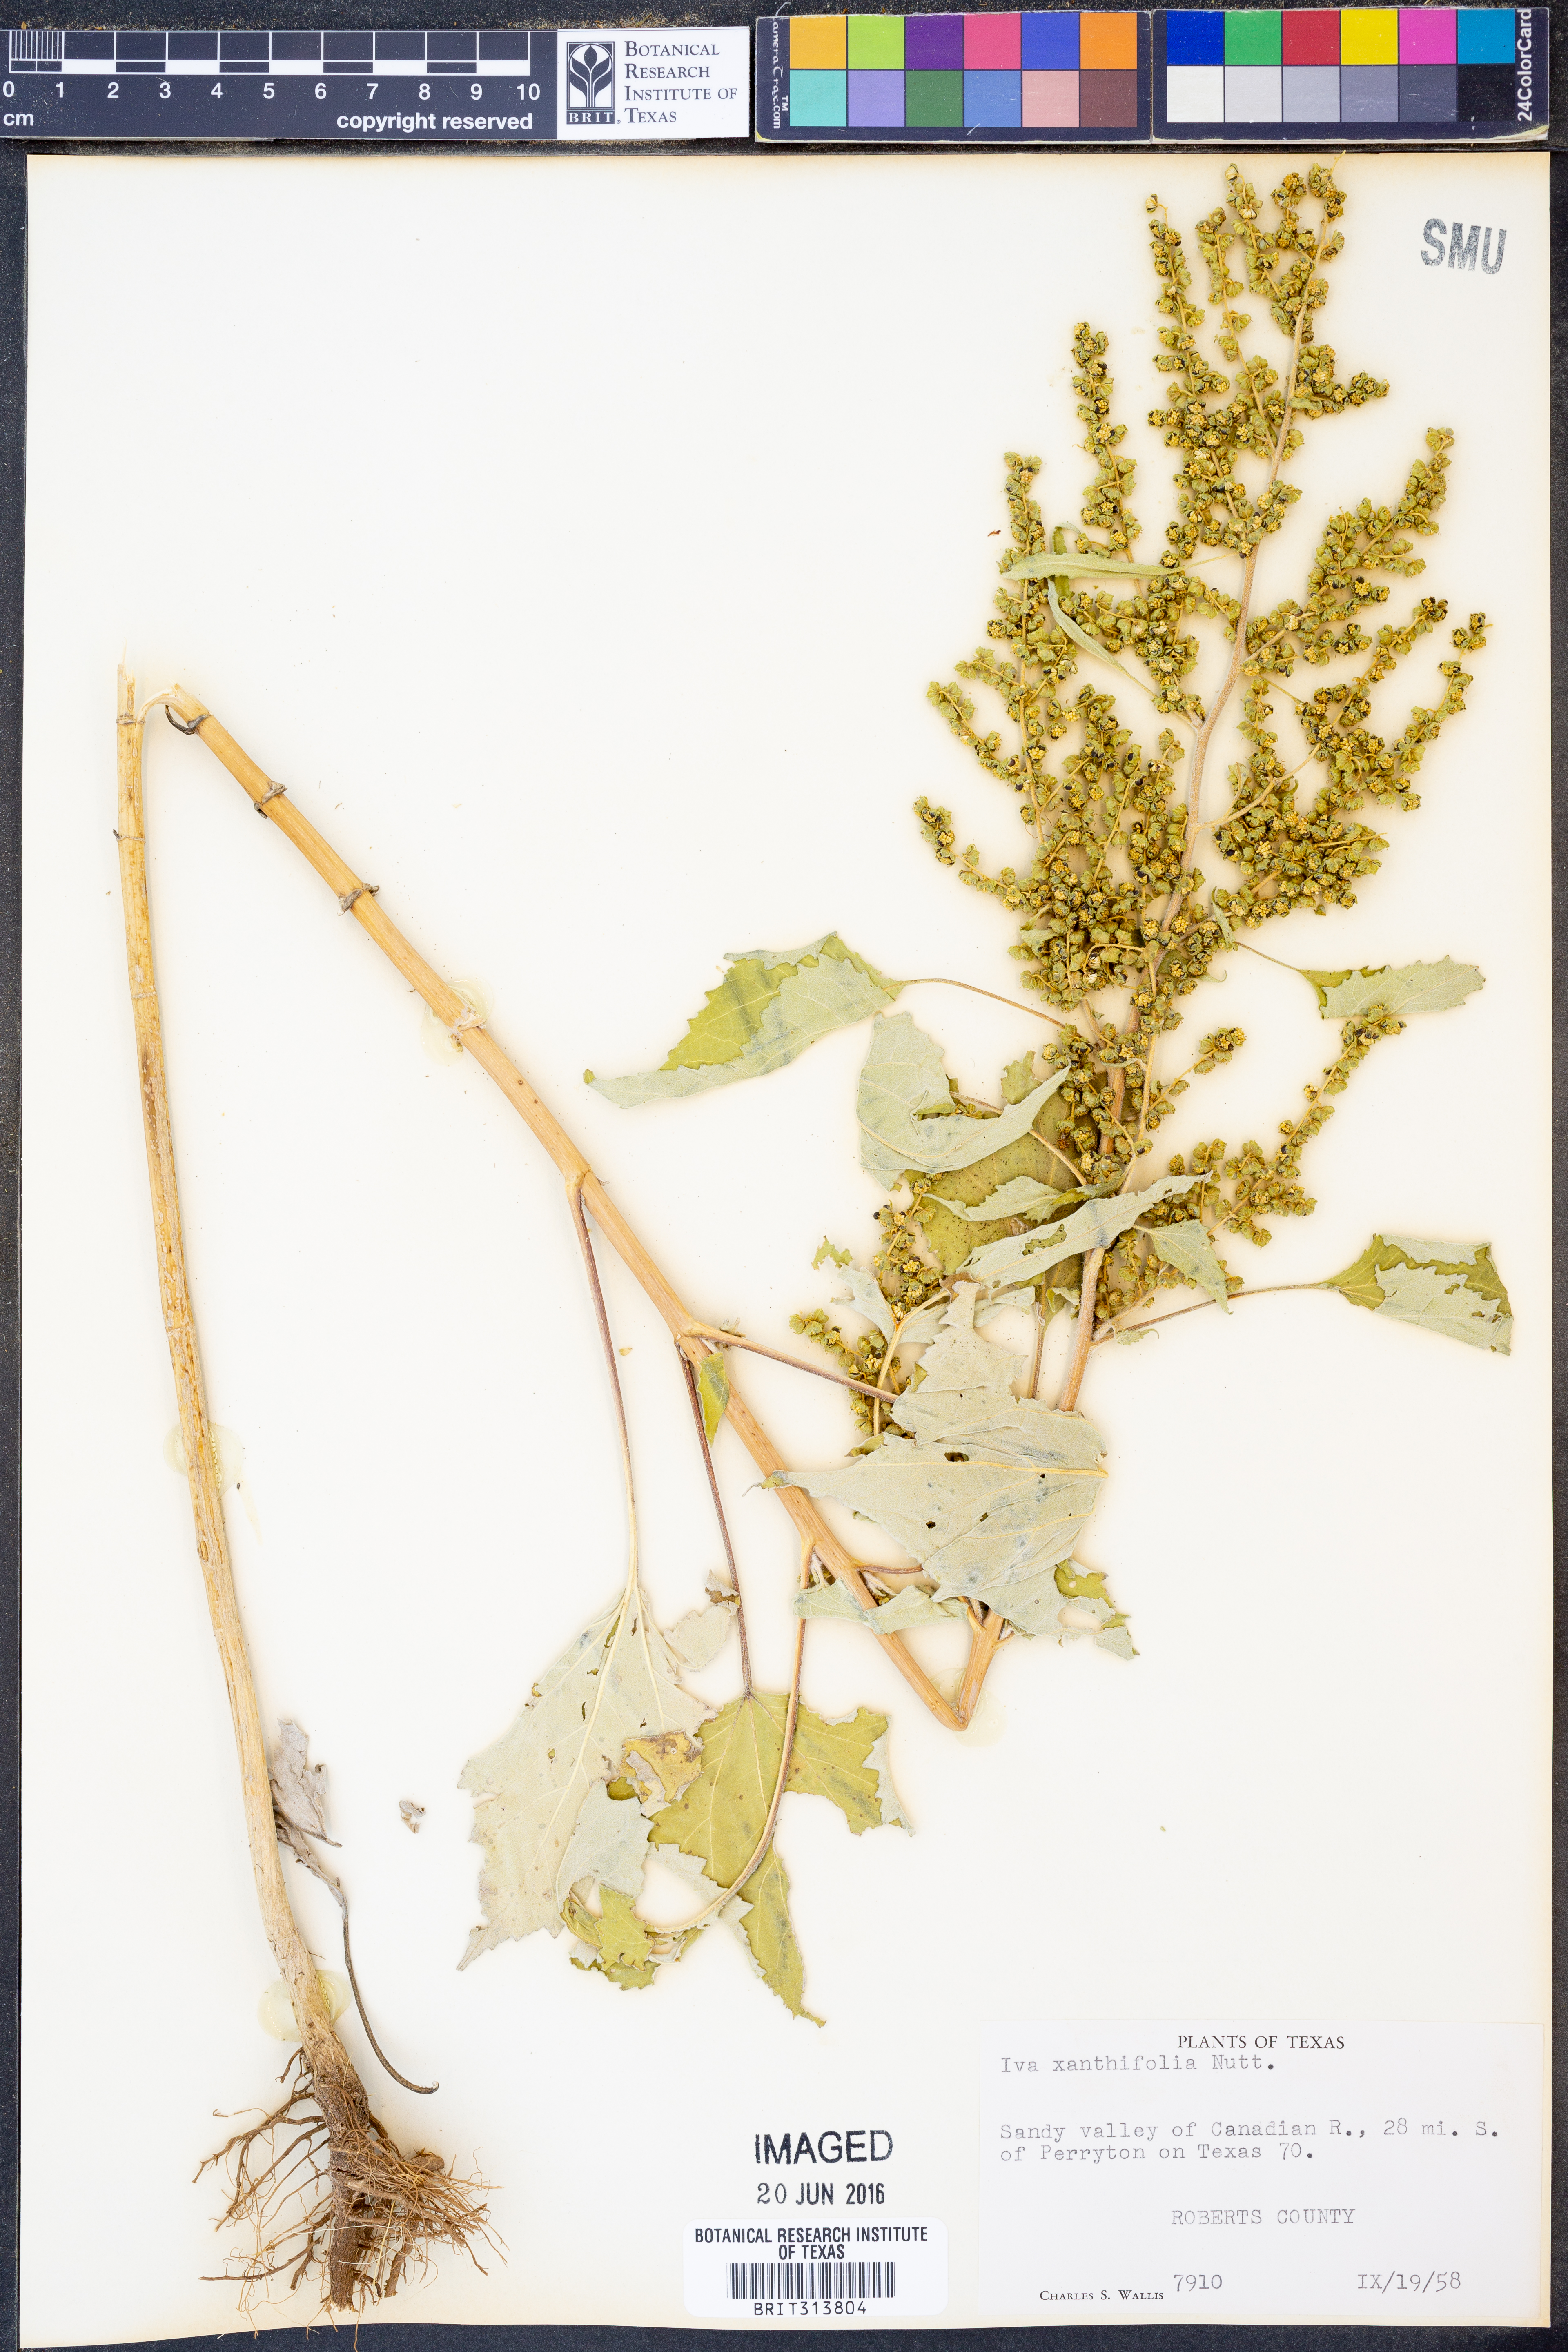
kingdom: Plantae
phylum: Tracheophyta
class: Magnoliopsida
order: Asterales
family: Asteraceae
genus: Cyclachaena
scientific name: Cyclachaena xanthiifolia
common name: Giant sumpweed
